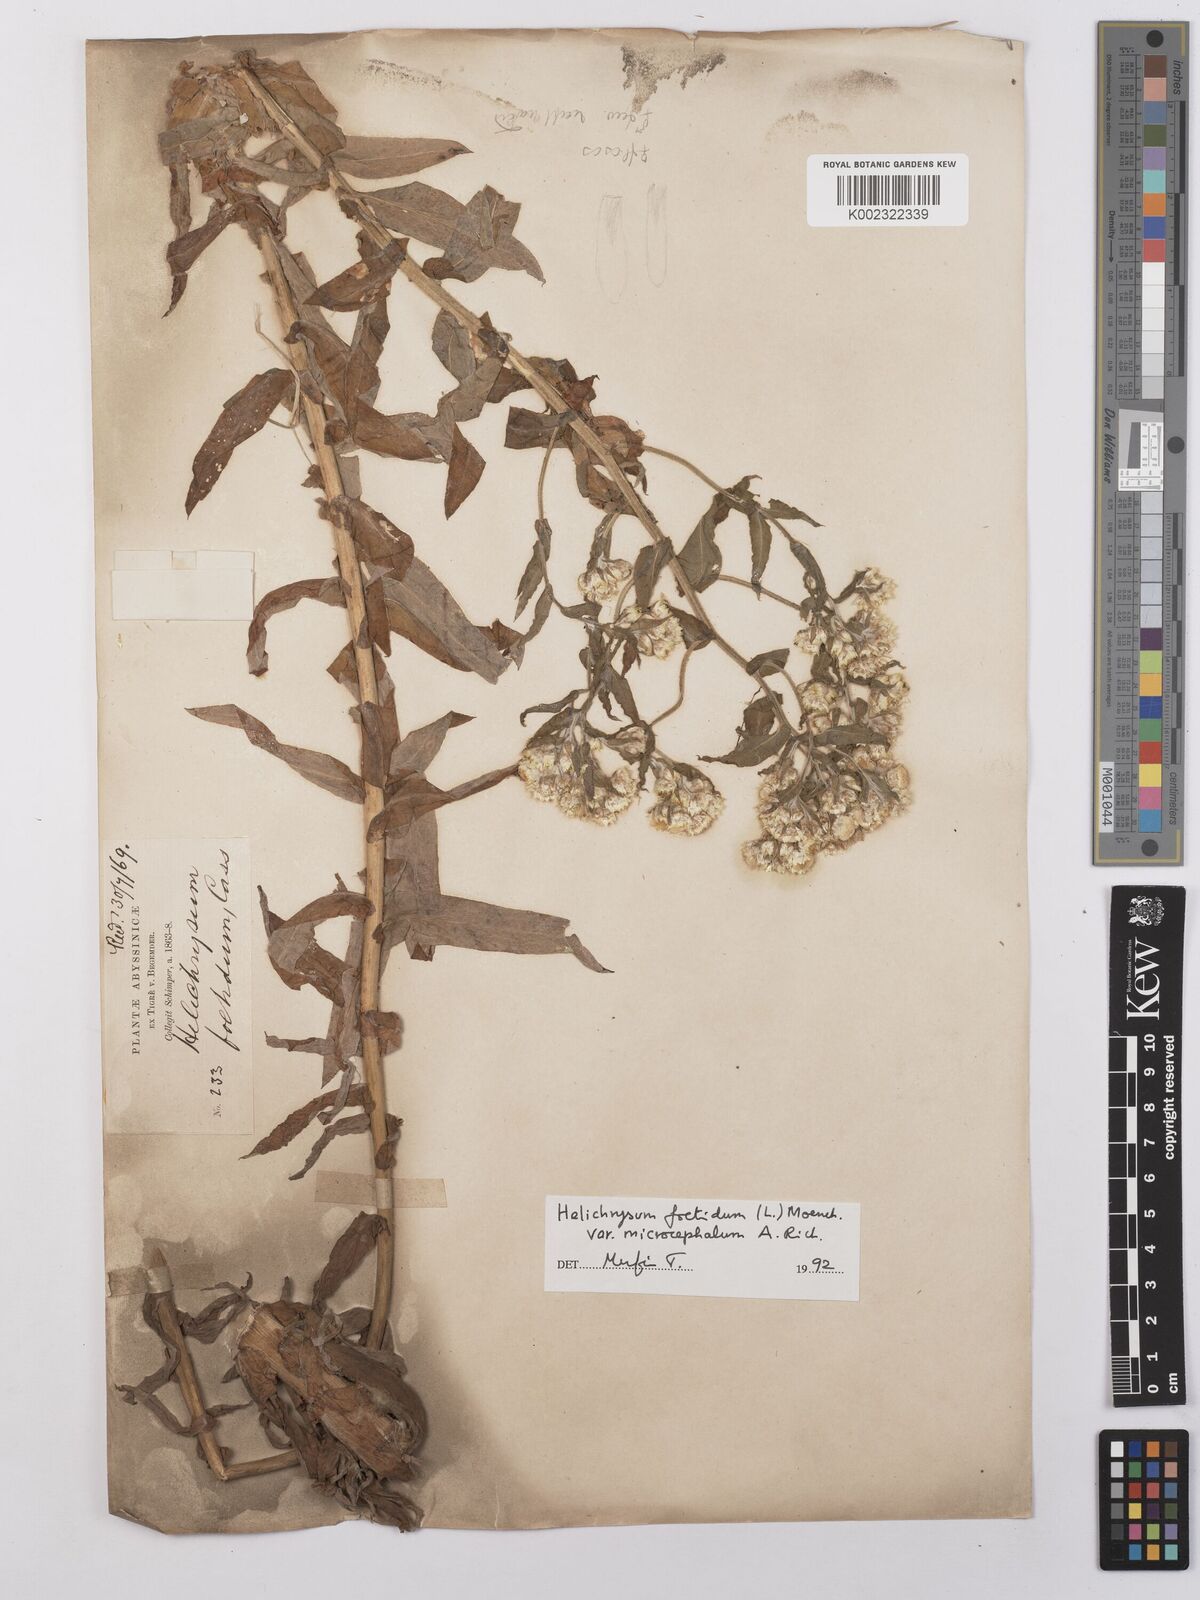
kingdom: Plantae
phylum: Tracheophyta
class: Magnoliopsida
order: Asterales
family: Asteraceae
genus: Helichrysum
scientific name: Helichrysum foetidum
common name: Stinking everlasting
